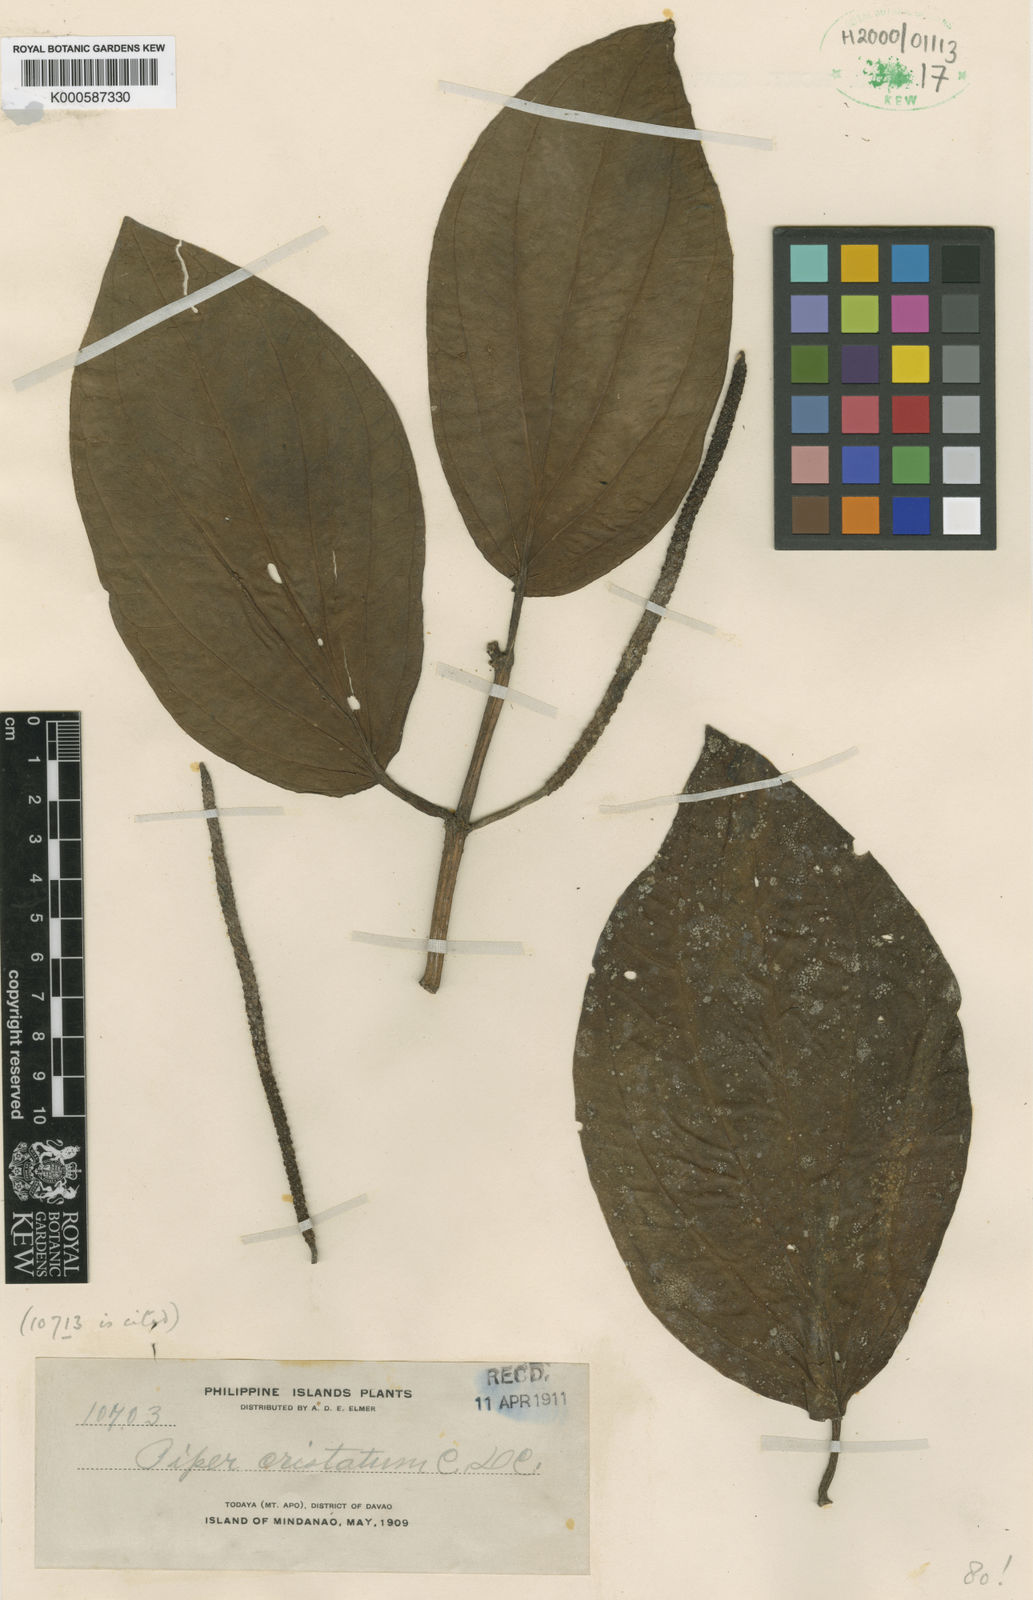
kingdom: Plantae
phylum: Tracheophyta
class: Magnoliopsida
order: Piperales
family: Piperaceae
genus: Piper
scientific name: Piper quinqueangulatum
